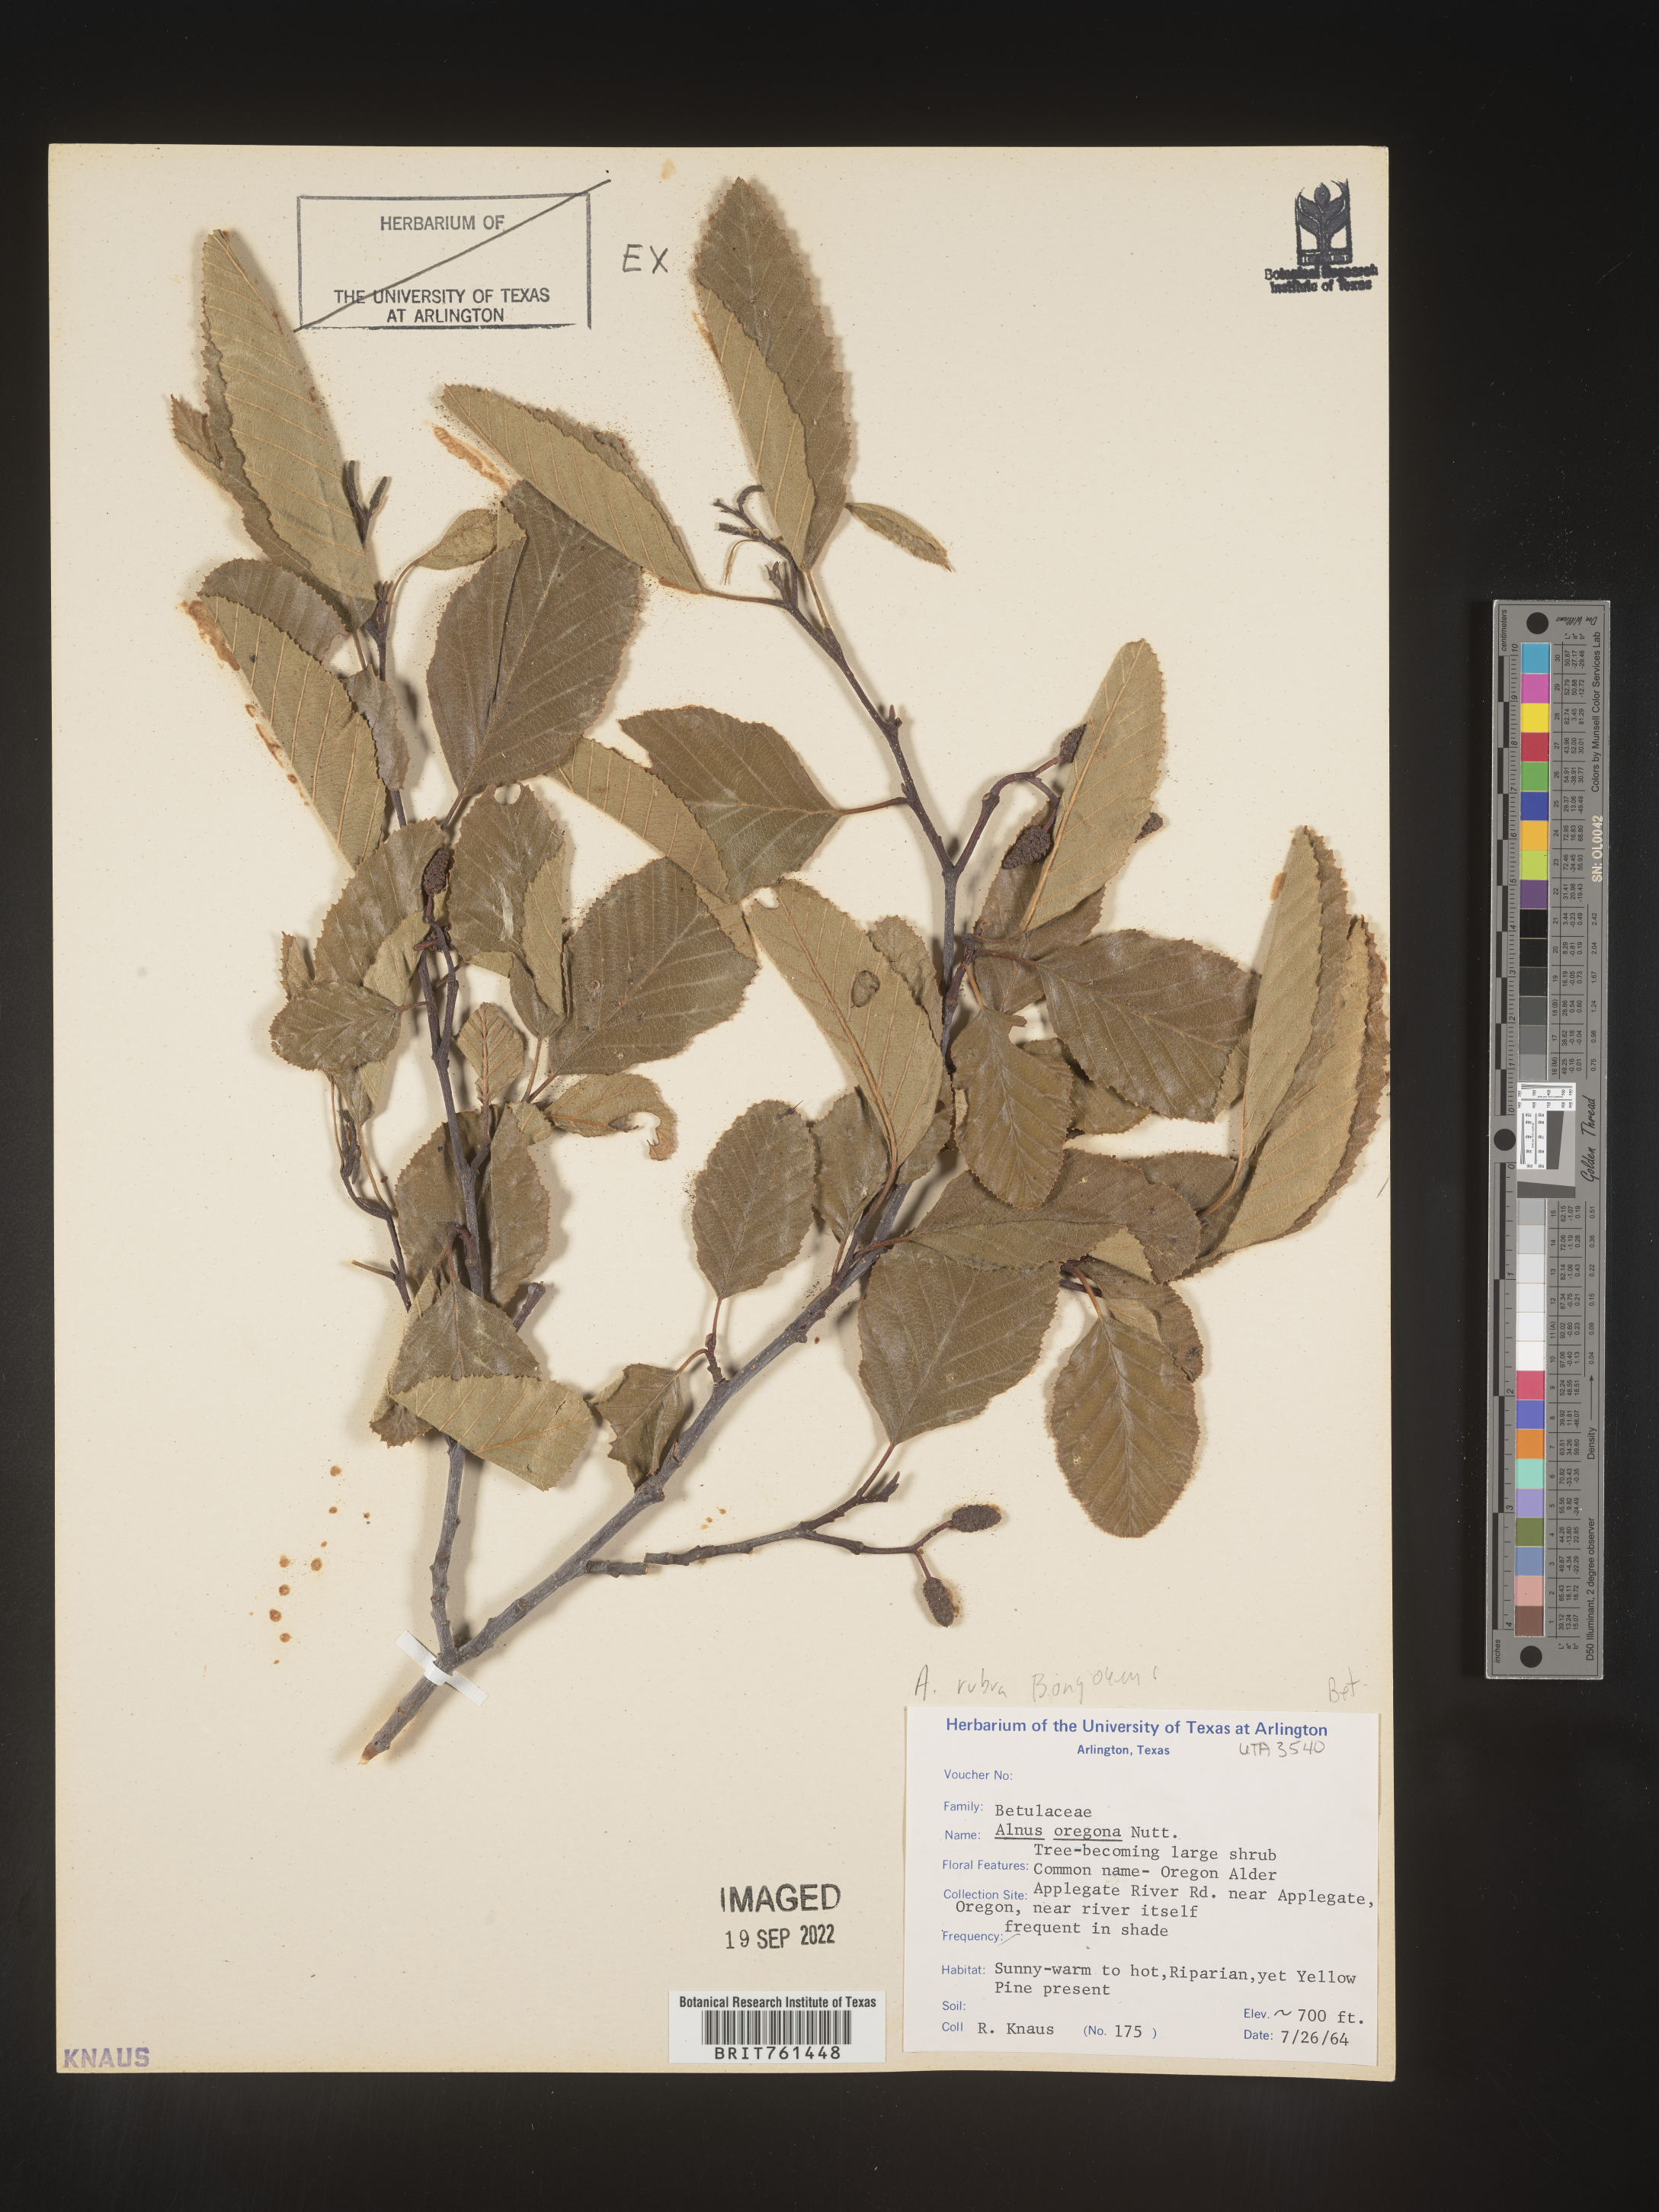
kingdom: Plantae
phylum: Tracheophyta
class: Magnoliopsida
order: Fagales
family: Betulaceae
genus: Alnus
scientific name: Alnus rubra
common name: Red alder
